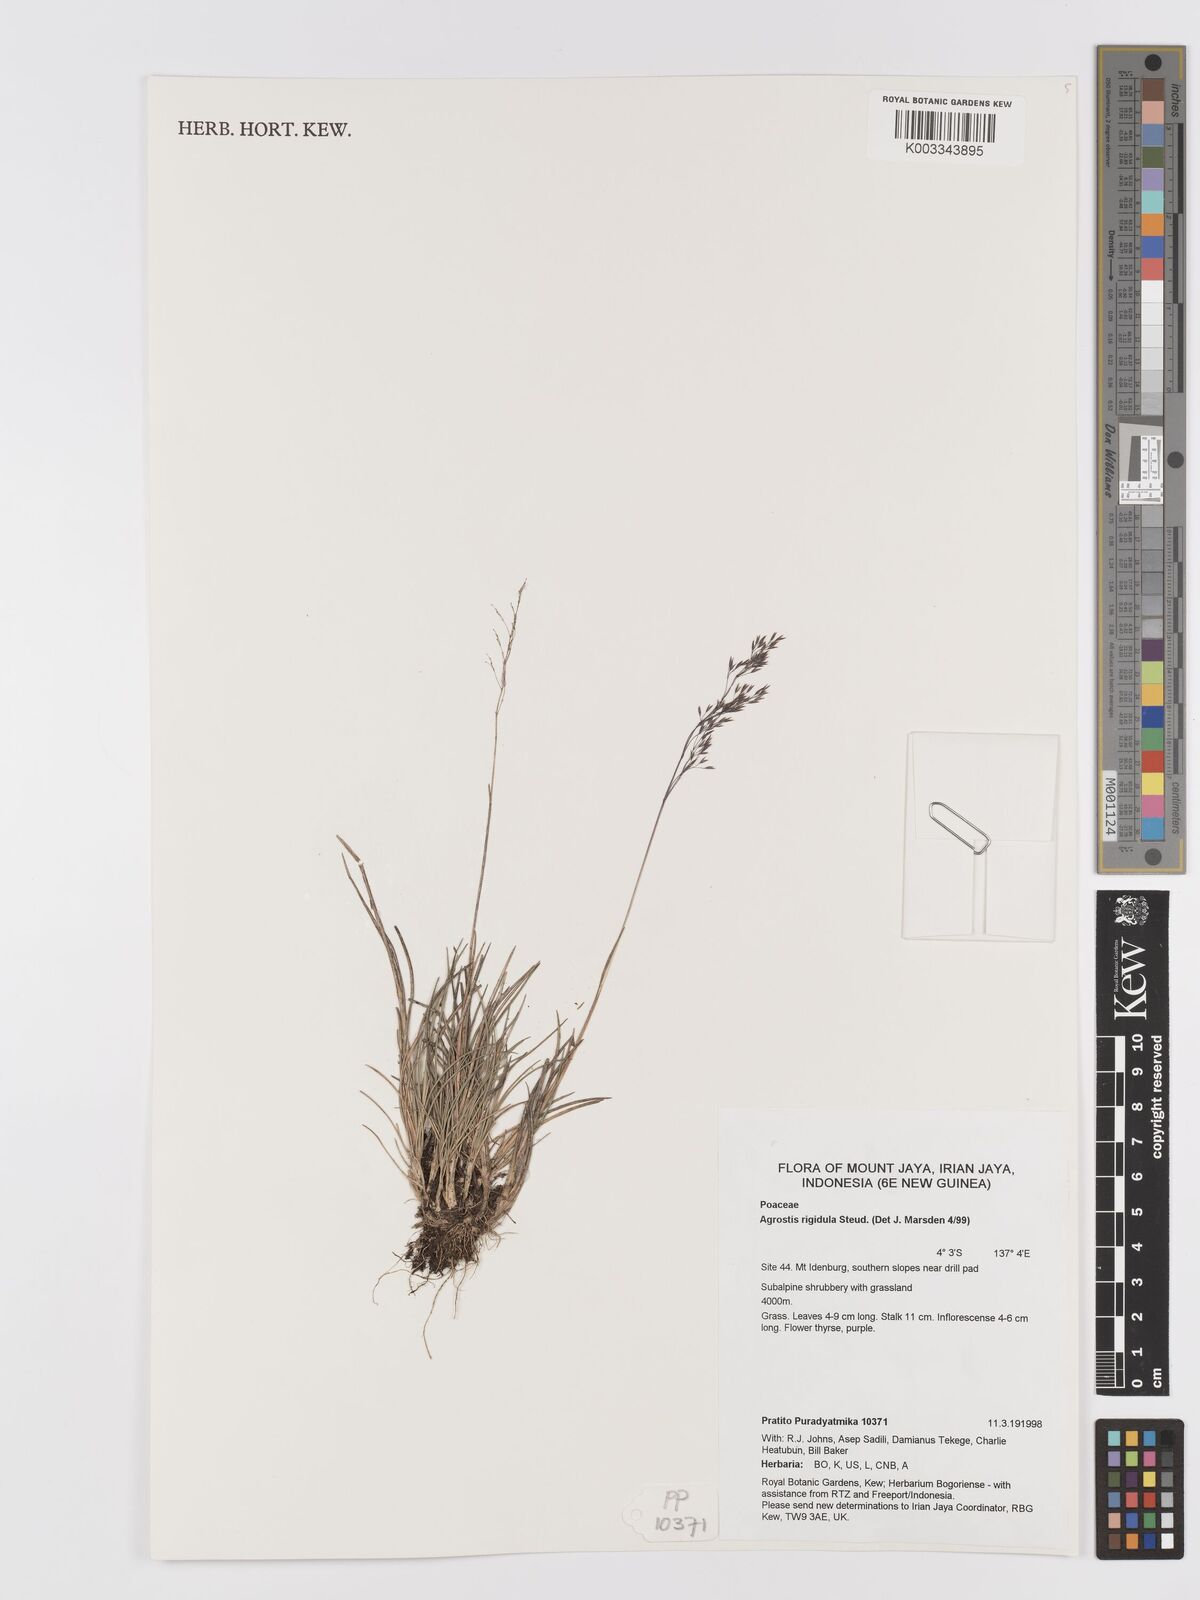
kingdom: Plantae
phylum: Tracheophyta
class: Liliopsida
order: Poales
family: Poaceae
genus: Agrostis
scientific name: Agrostis infirma
